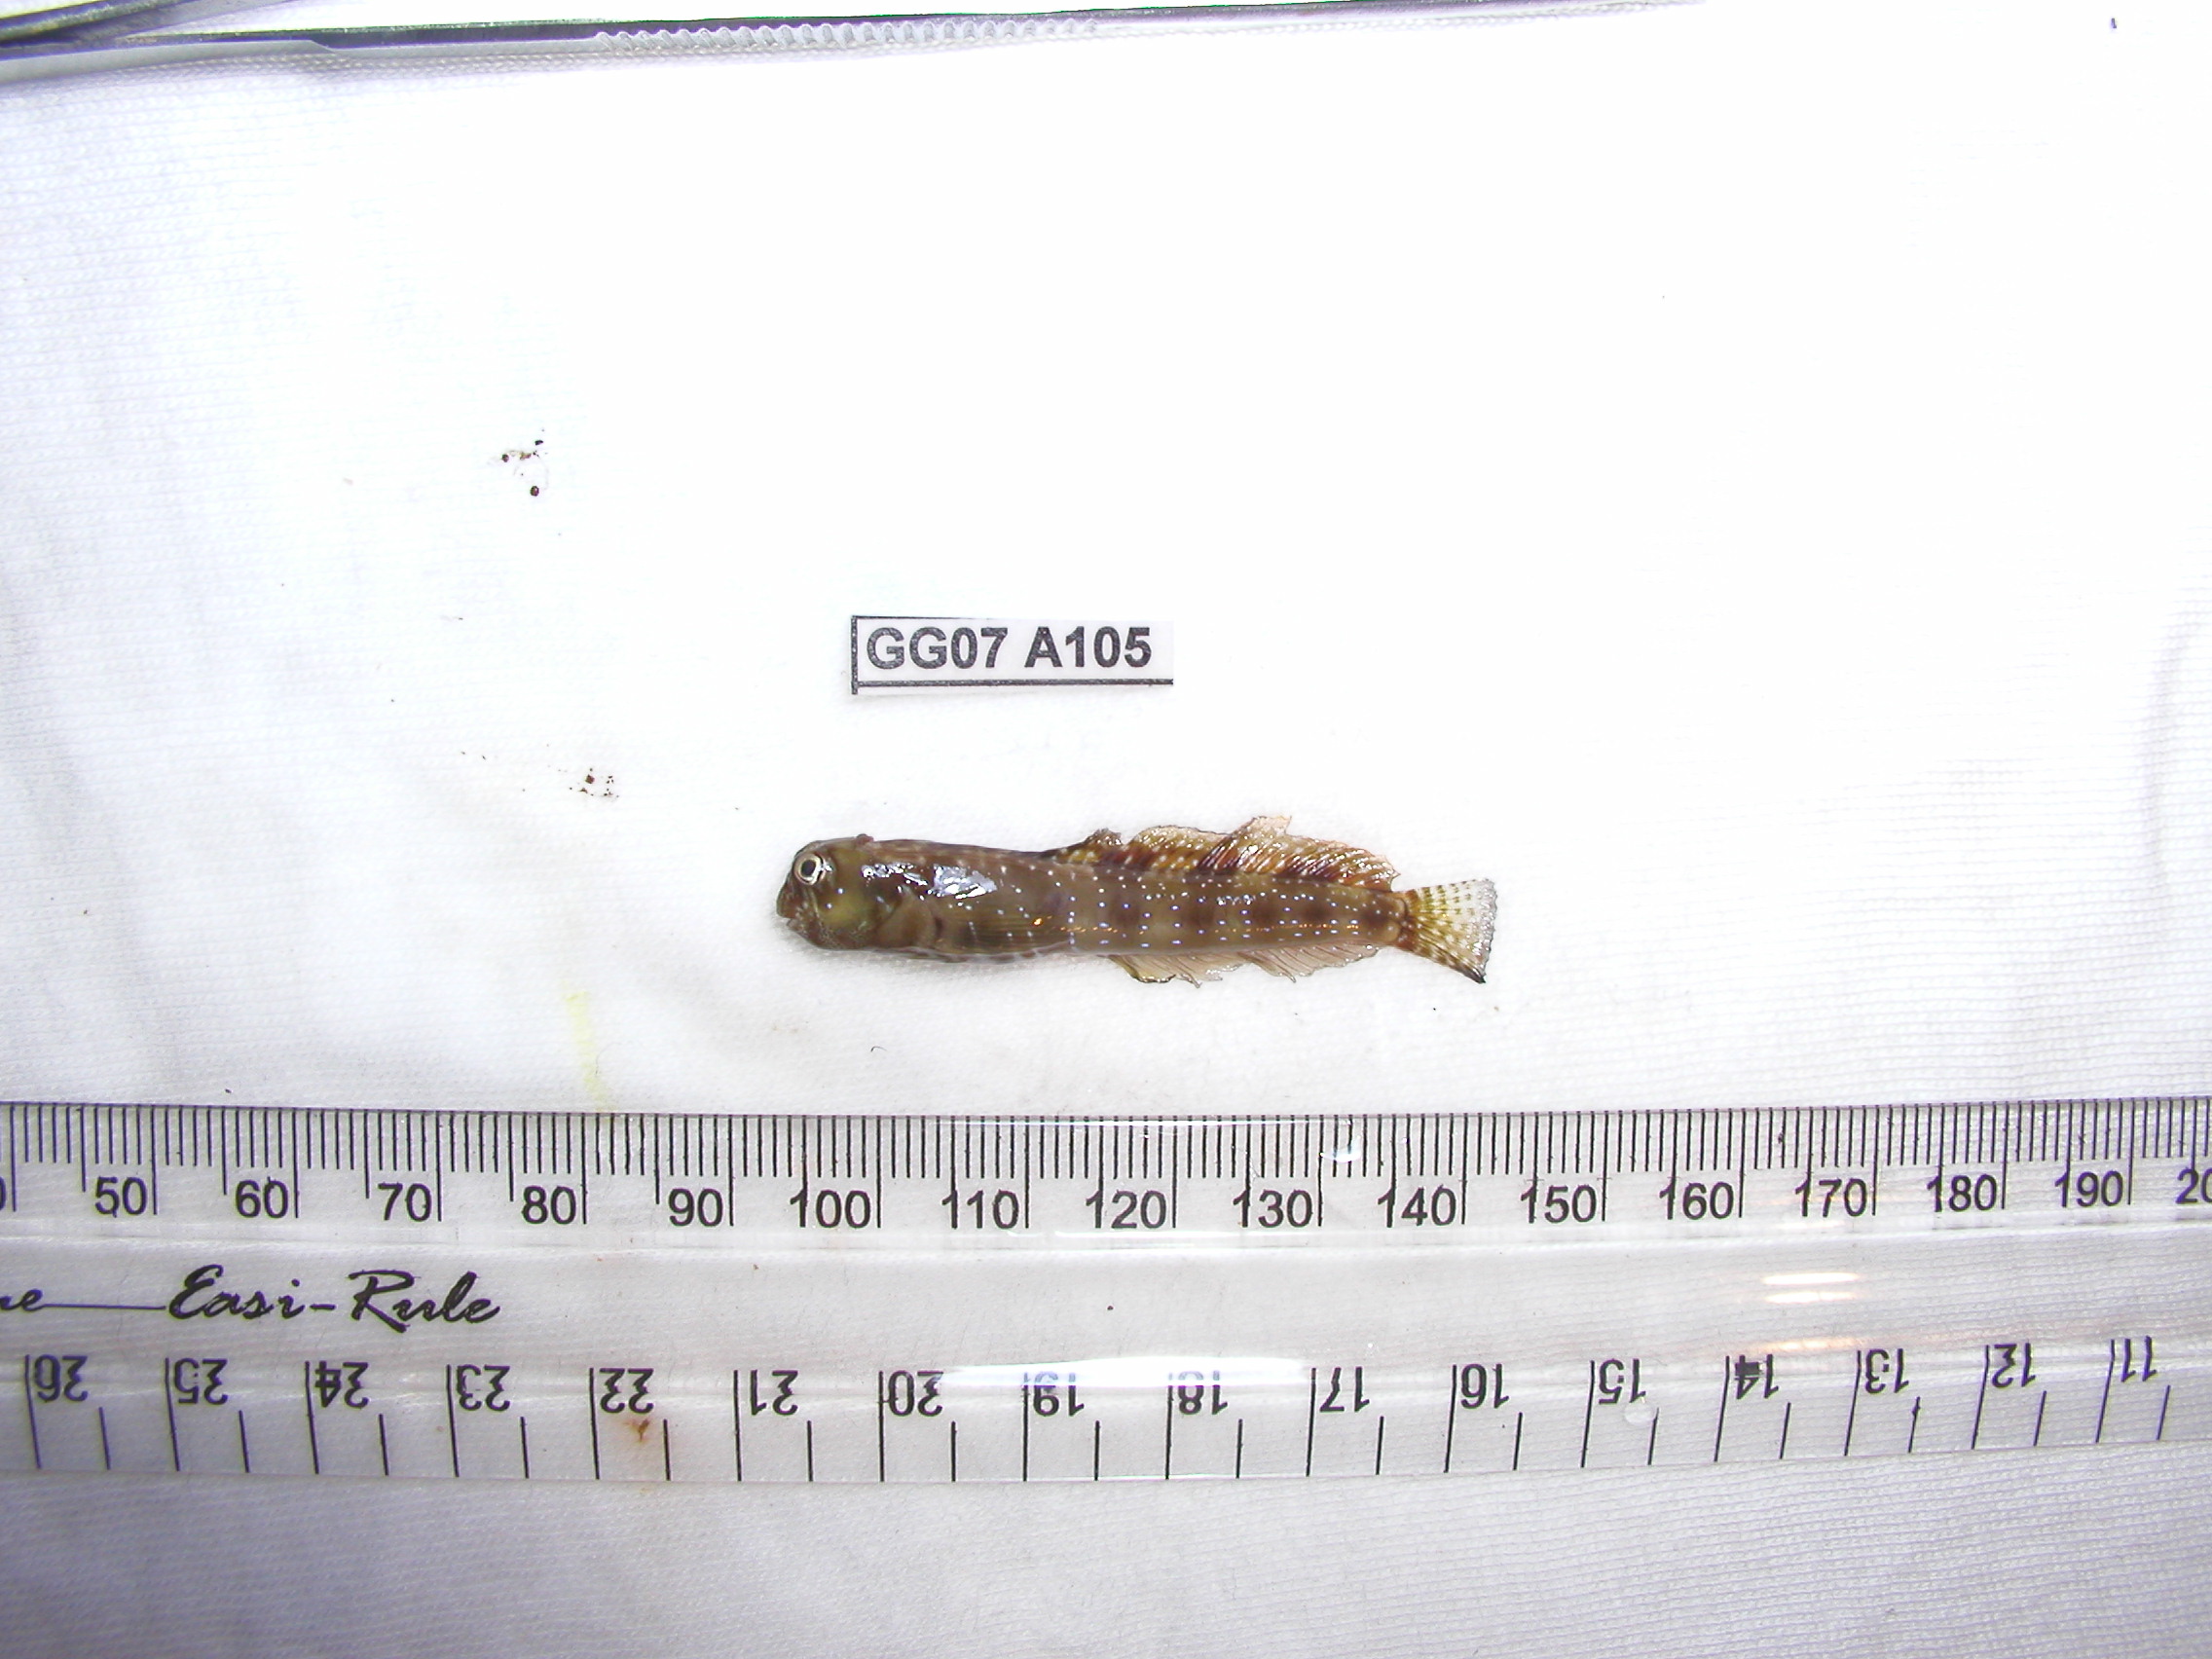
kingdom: Animalia
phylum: Chordata
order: Perciformes
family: Blenniidae
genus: Antennablennius
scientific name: Antennablennius bifilum
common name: Horned rockskipper
